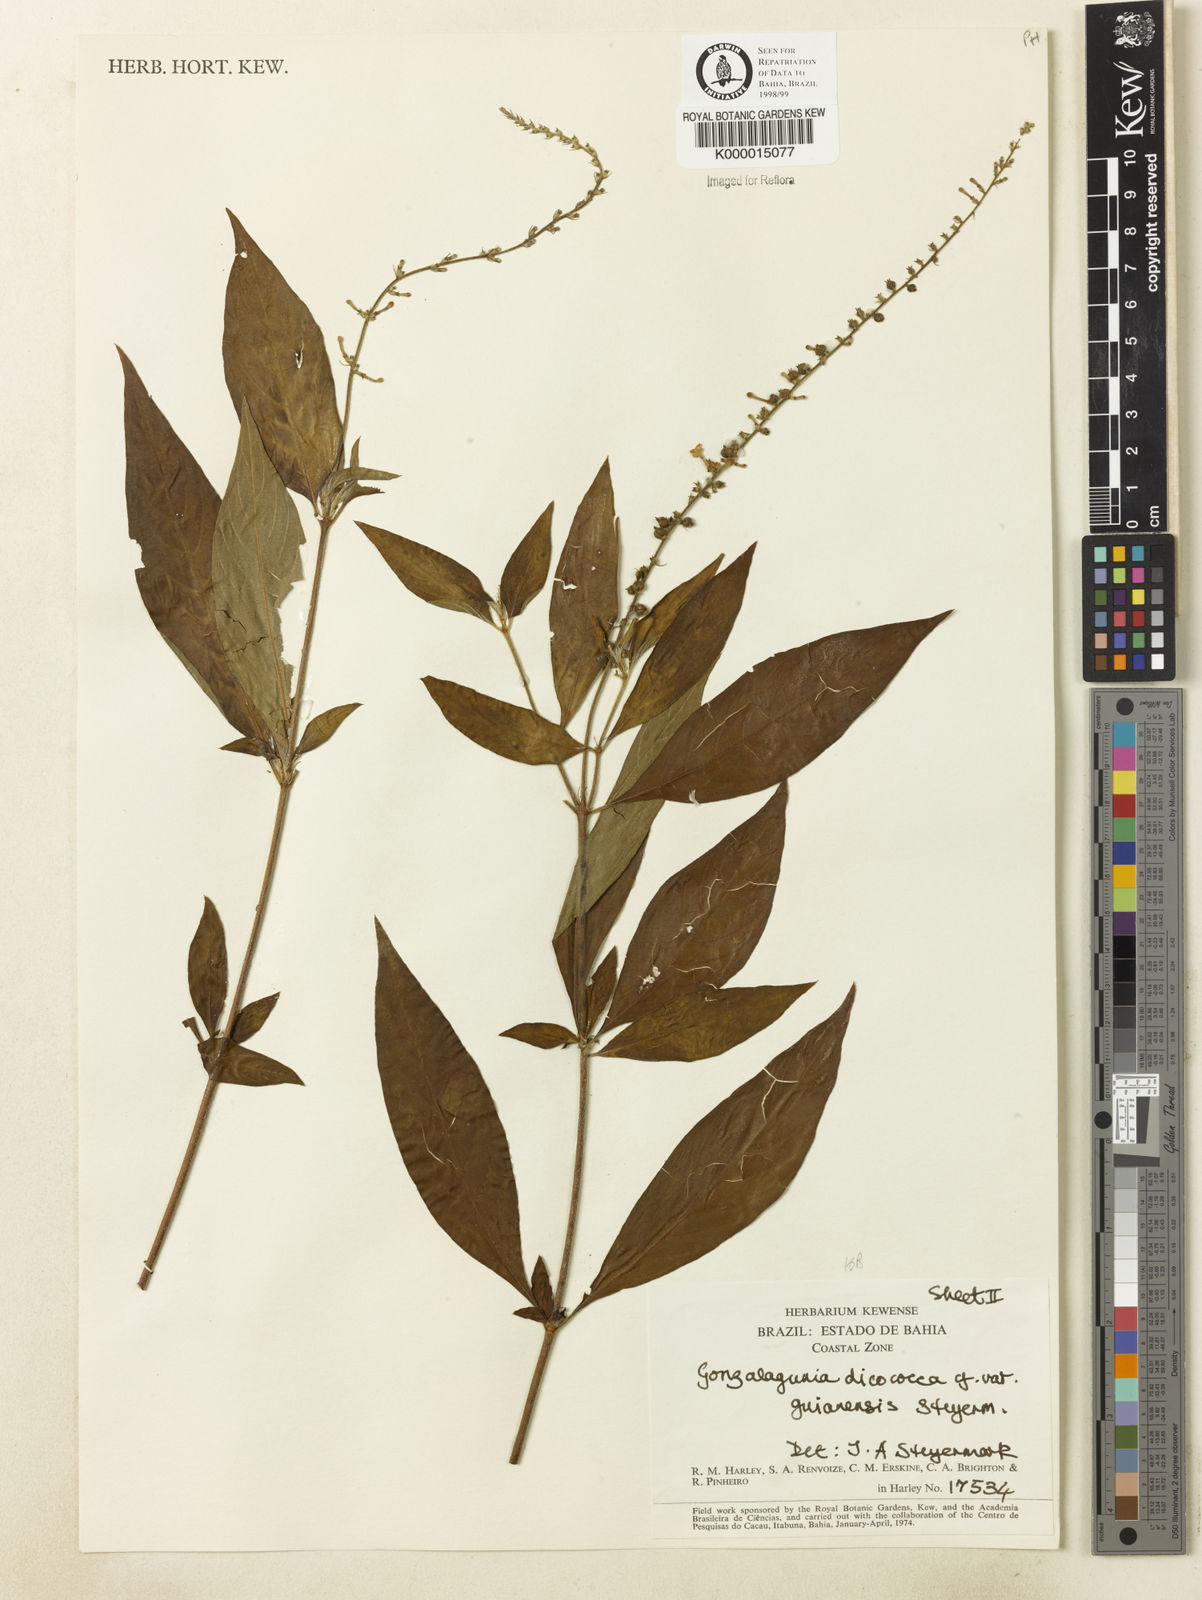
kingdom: Plantae
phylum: Tracheophyta
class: Magnoliopsida
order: Gentianales
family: Rubiaceae
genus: Gonzalagunia
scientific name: Gonzalagunia dicocca
